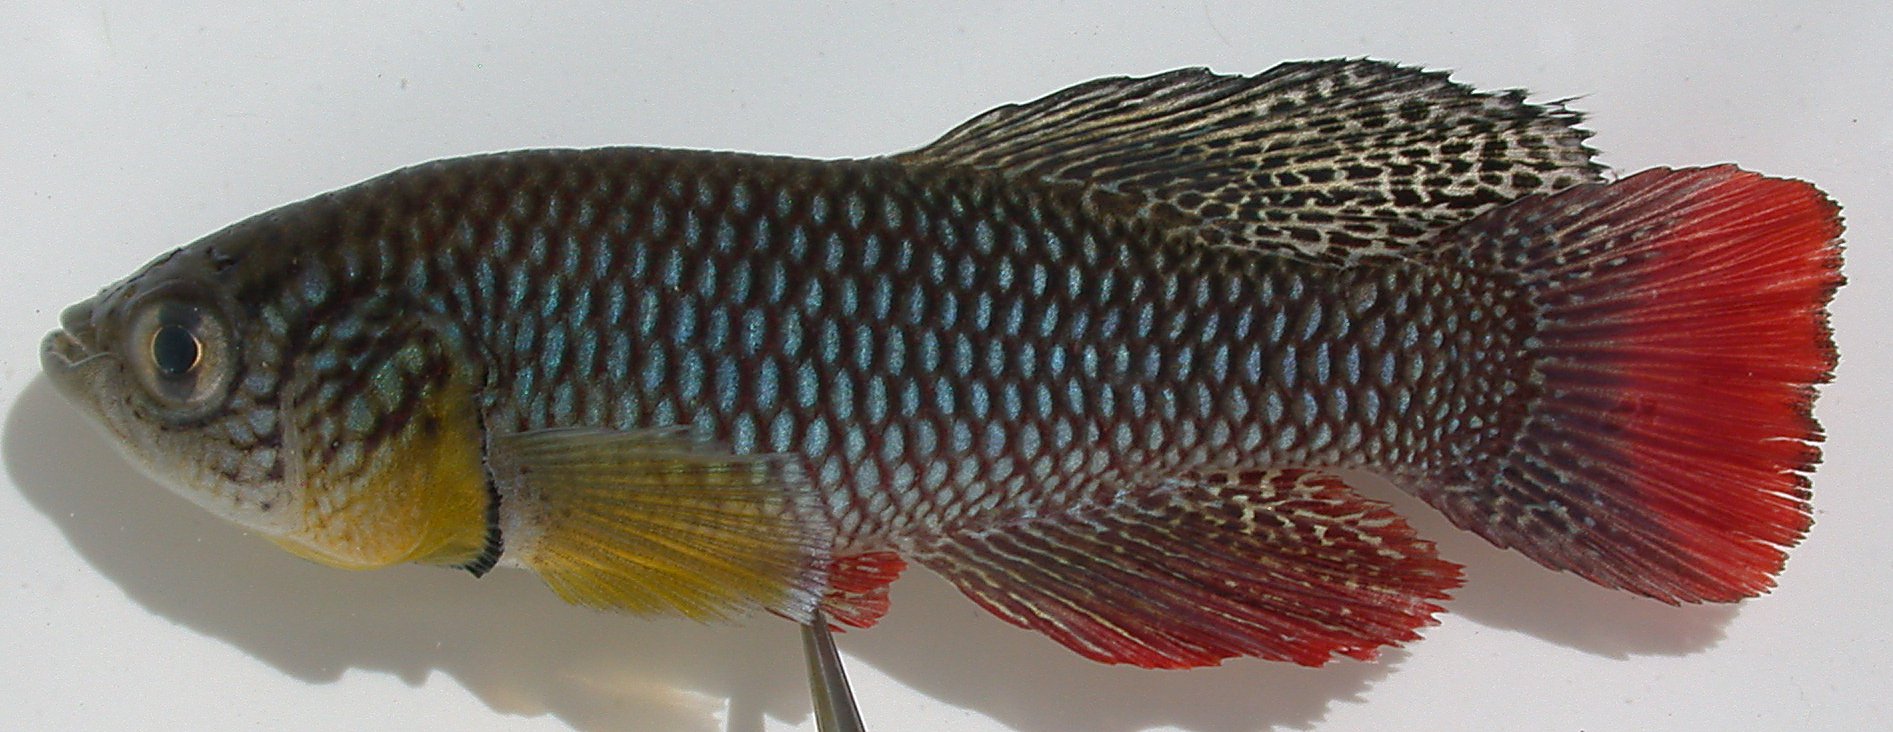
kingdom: Animalia
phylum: Chordata
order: Cyprinodontiformes
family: Nothobranchiidae
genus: Nothobranchius
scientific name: Nothobranchius furzeri
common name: African turquoise killifish
